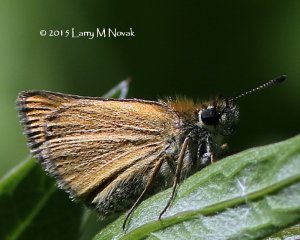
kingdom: Animalia
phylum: Arthropoda
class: Insecta
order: Lepidoptera
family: Hesperiidae
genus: Thymelicus
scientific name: Thymelicus lineola
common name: European Skipper
